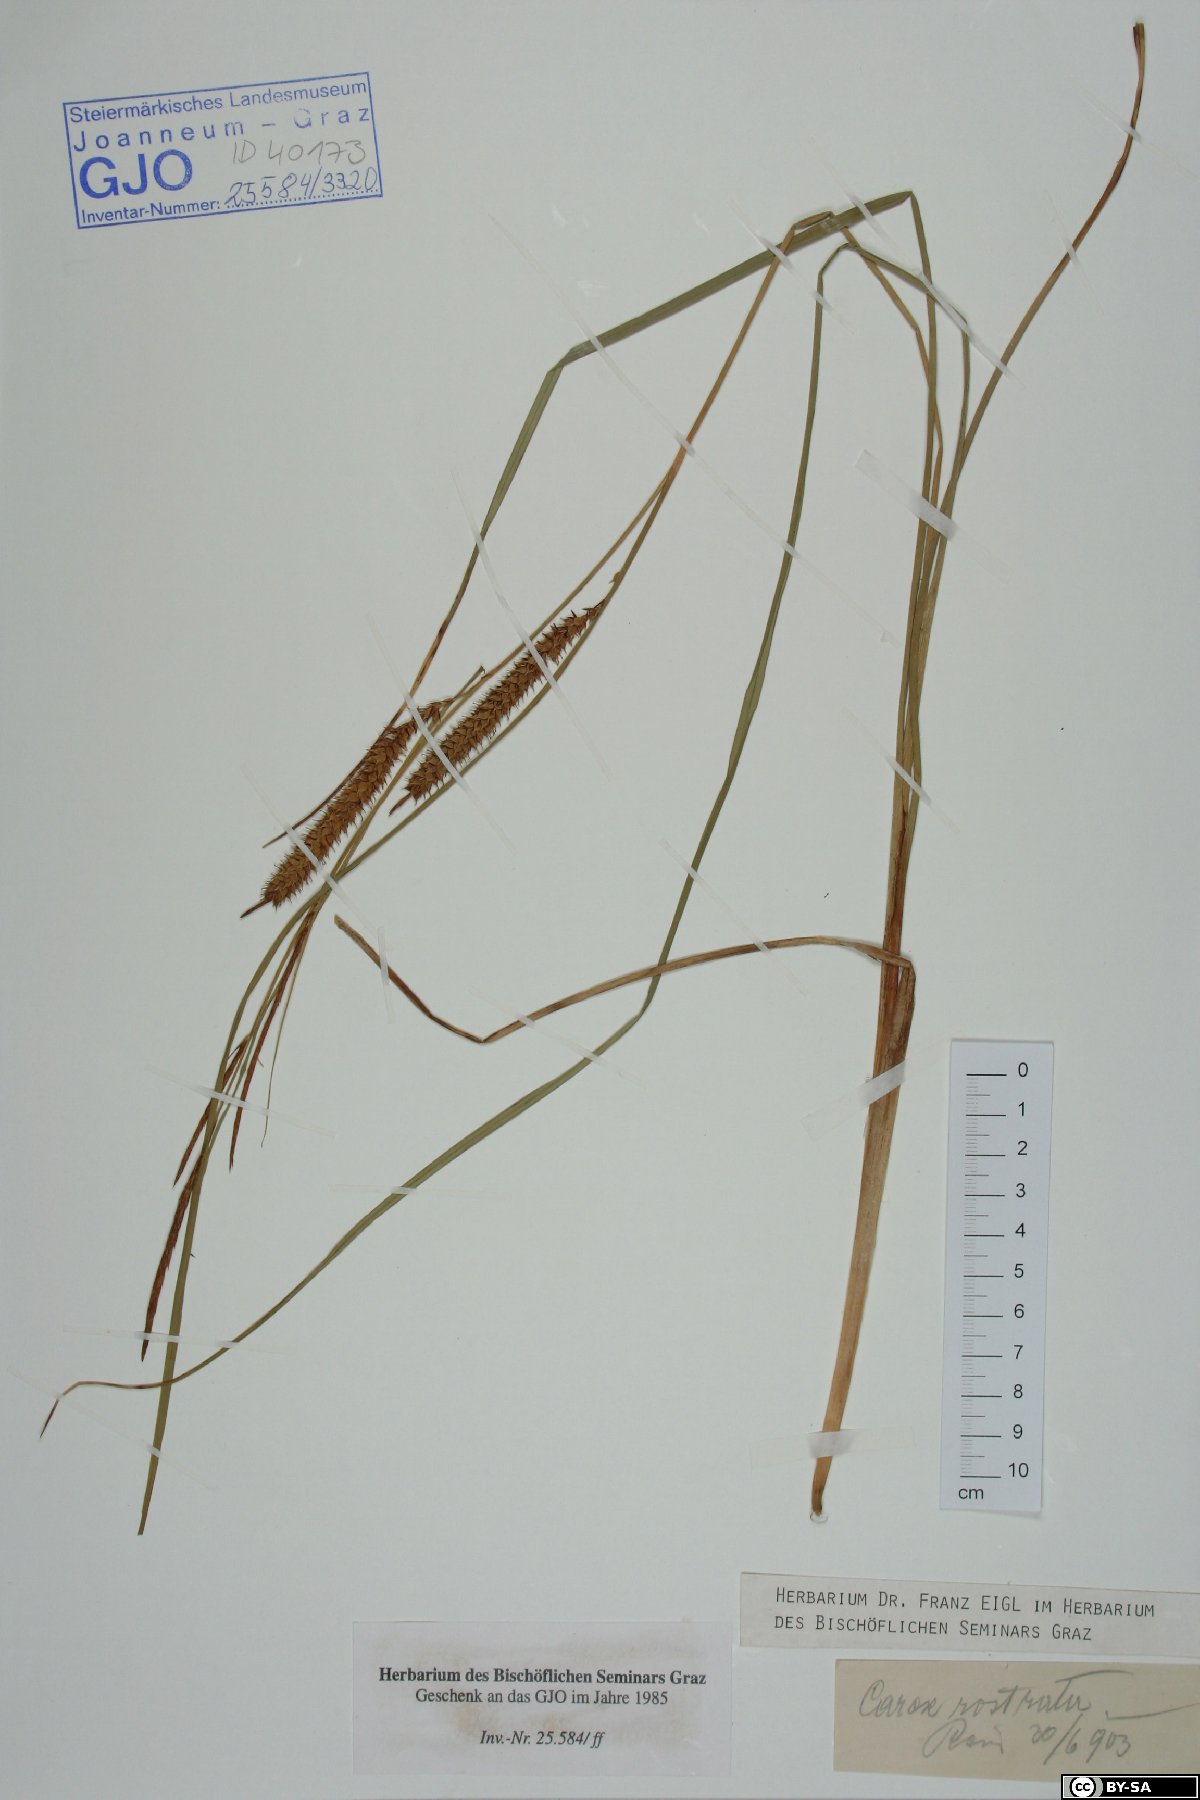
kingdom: Plantae
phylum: Tracheophyta
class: Liliopsida
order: Poales
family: Cyperaceae
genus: Carex
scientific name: Carex rostrata
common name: Bottle sedge
